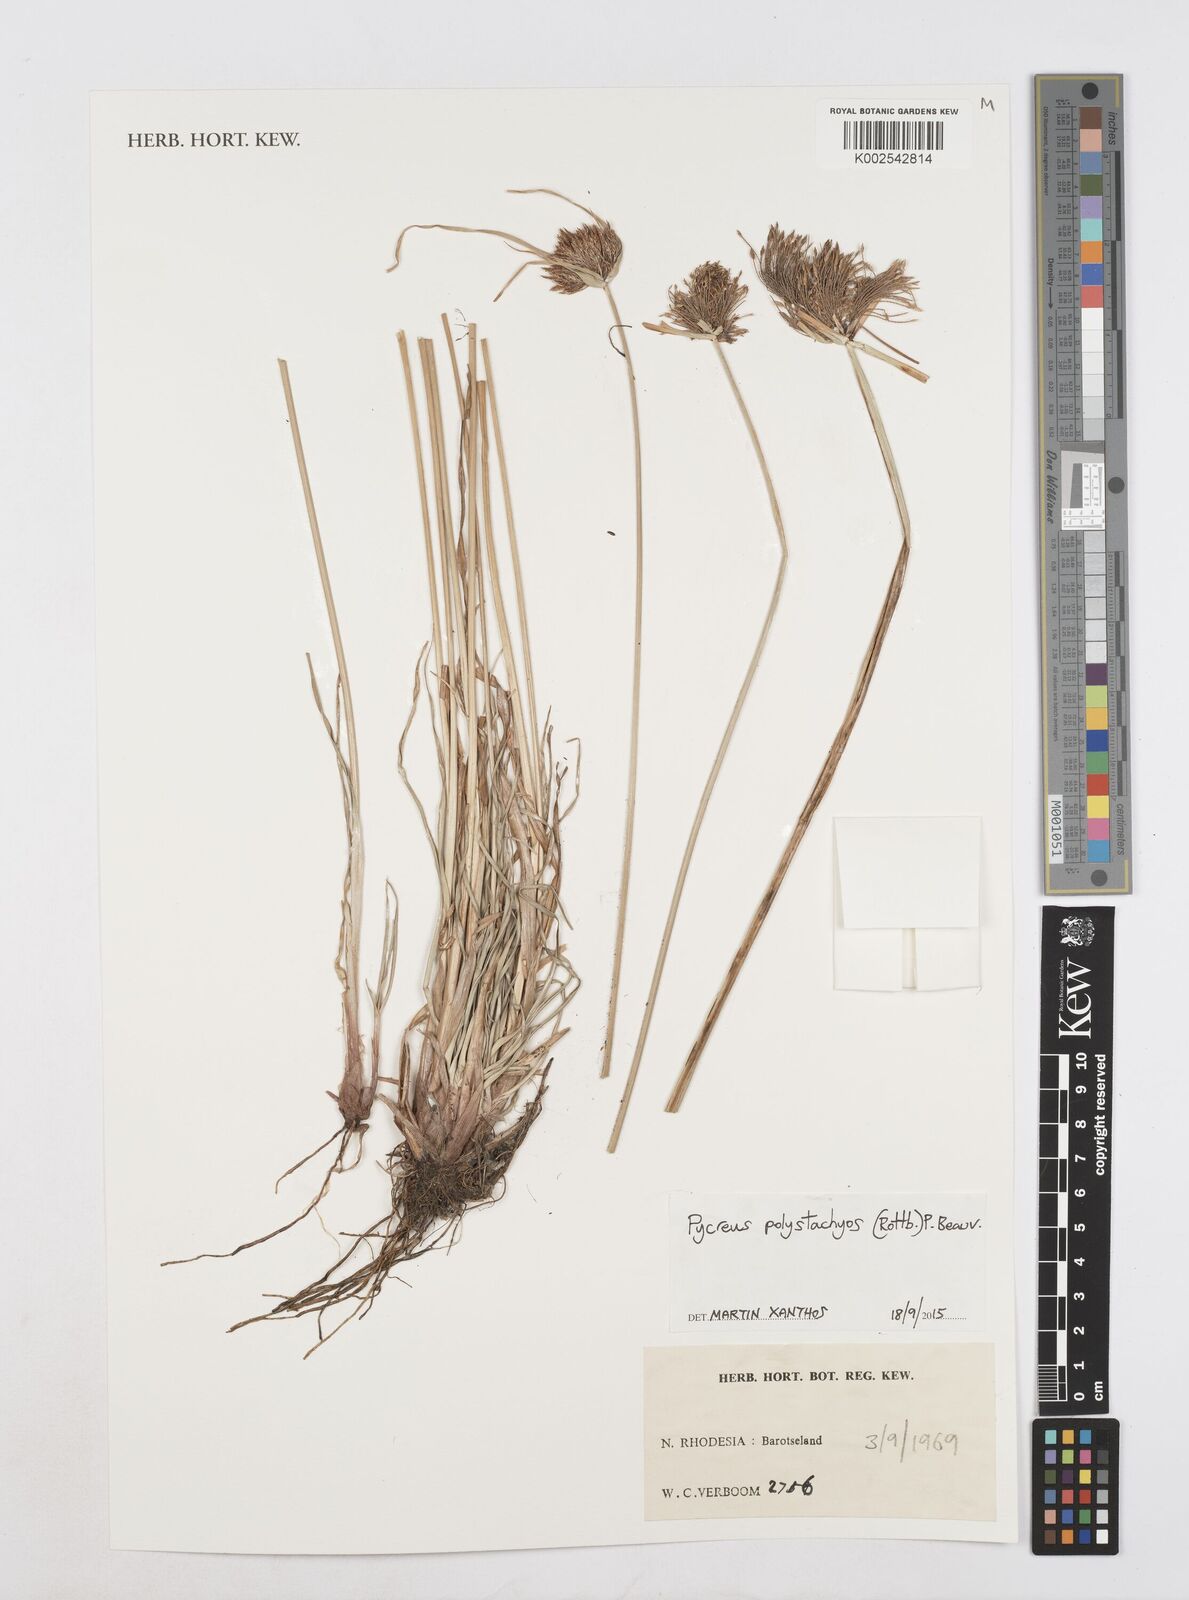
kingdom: Plantae
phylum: Tracheophyta
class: Liliopsida
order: Poales
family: Cyperaceae
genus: Cyperus
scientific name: Cyperus polystachyos
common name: Bunchy flat sedge
